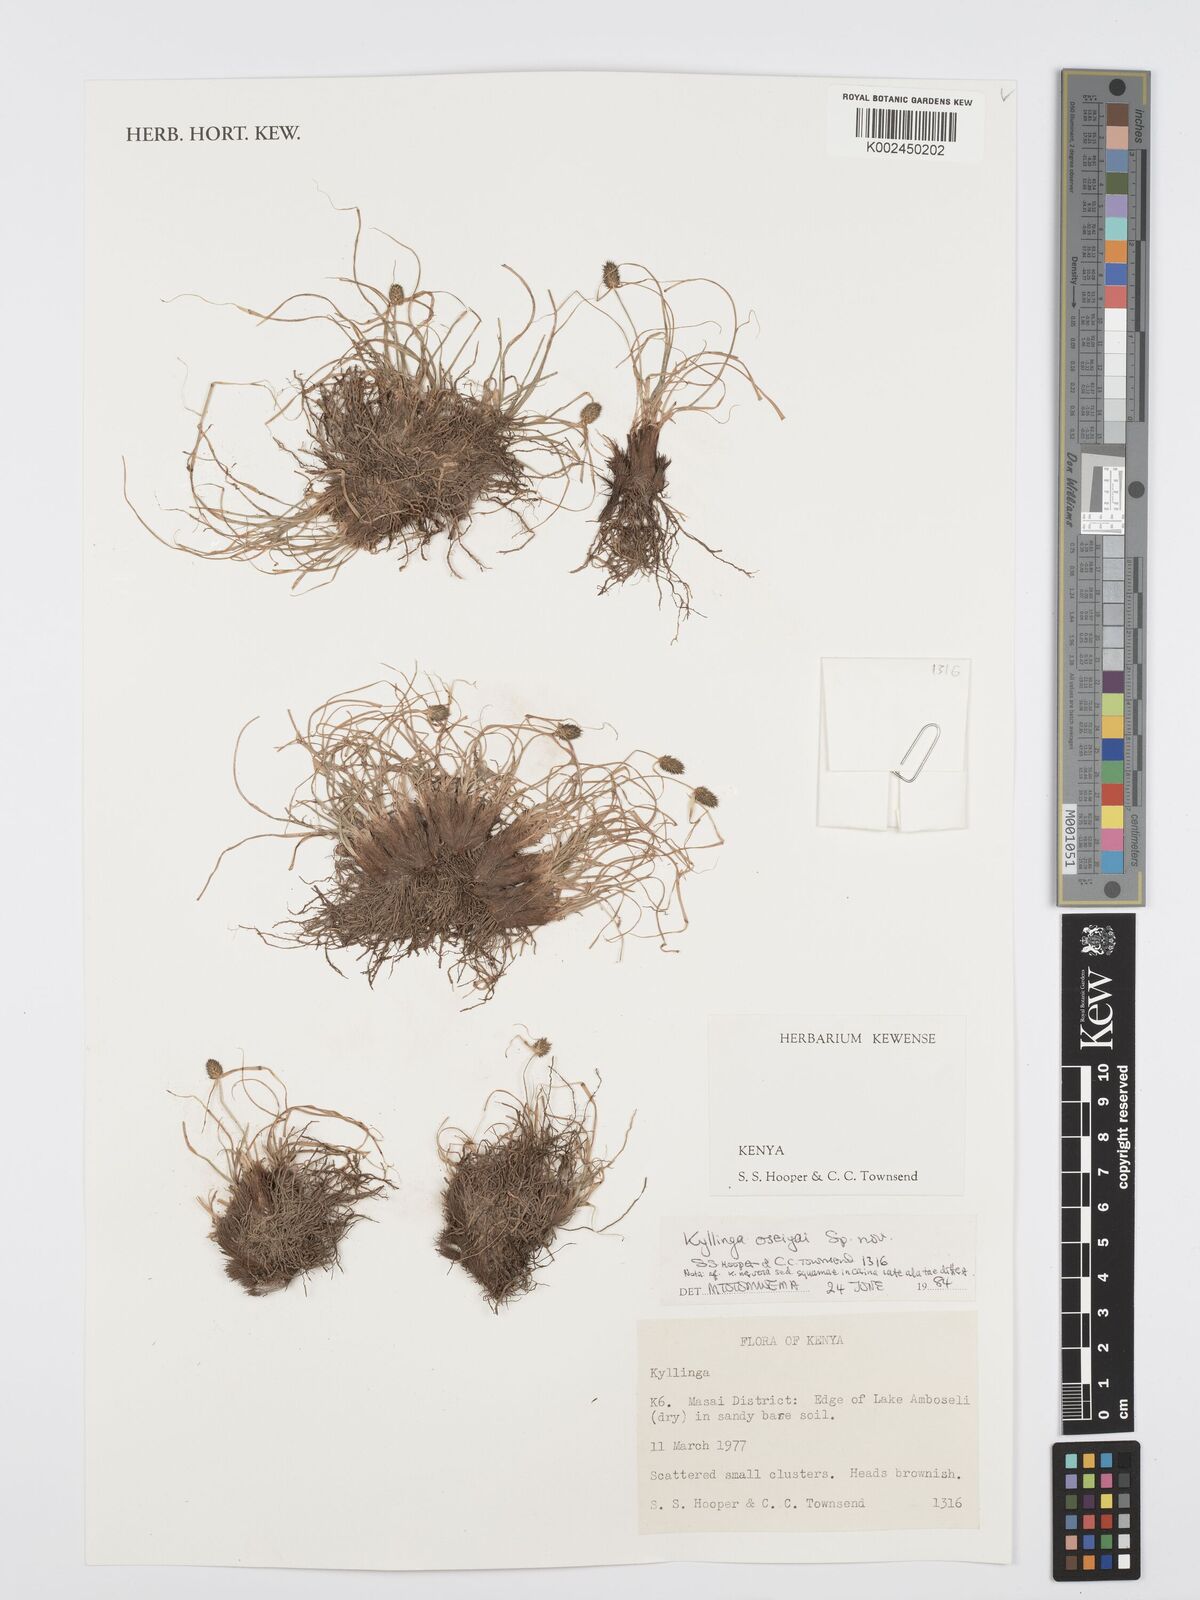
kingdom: Plantae
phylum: Tracheophyta
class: Liliopsida
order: Poales
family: Cyperaceae
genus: Cyperus
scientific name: Cyperus
